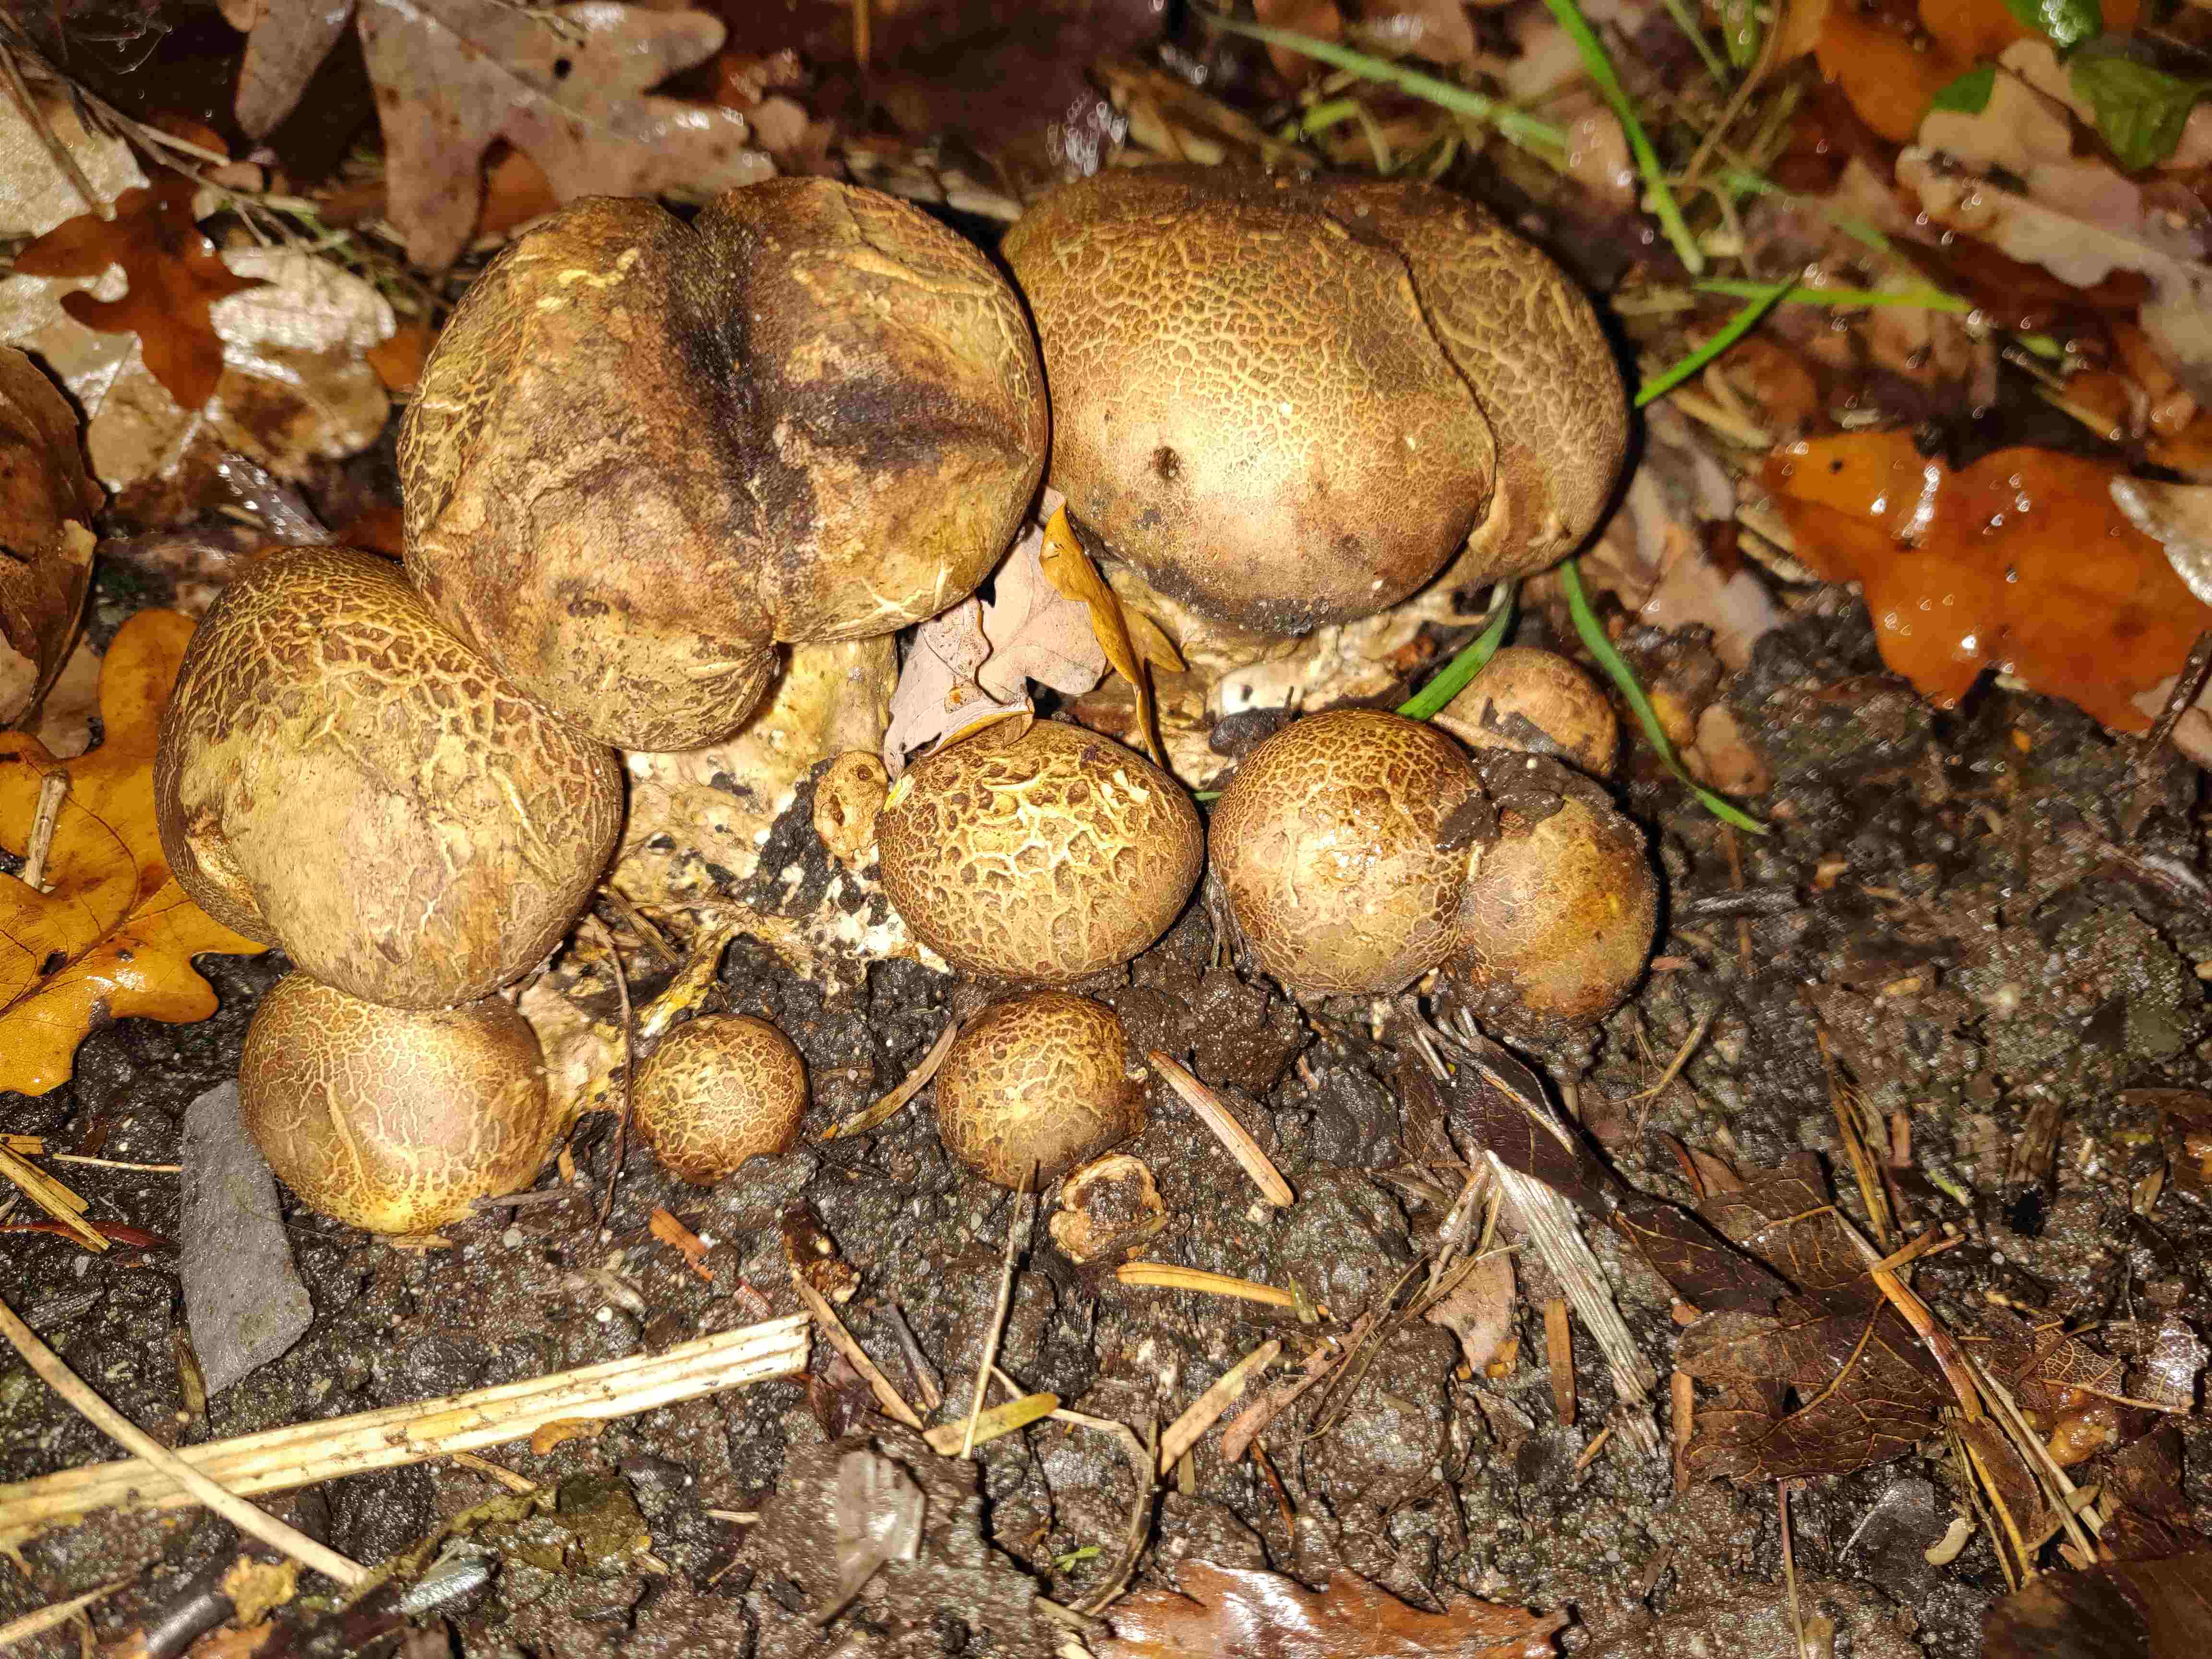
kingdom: Fungi
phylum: Basidiomycota
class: Agaricomycetes
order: Boletales
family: Sclerodermataceae
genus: Scleroderma
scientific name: Scleroderma
